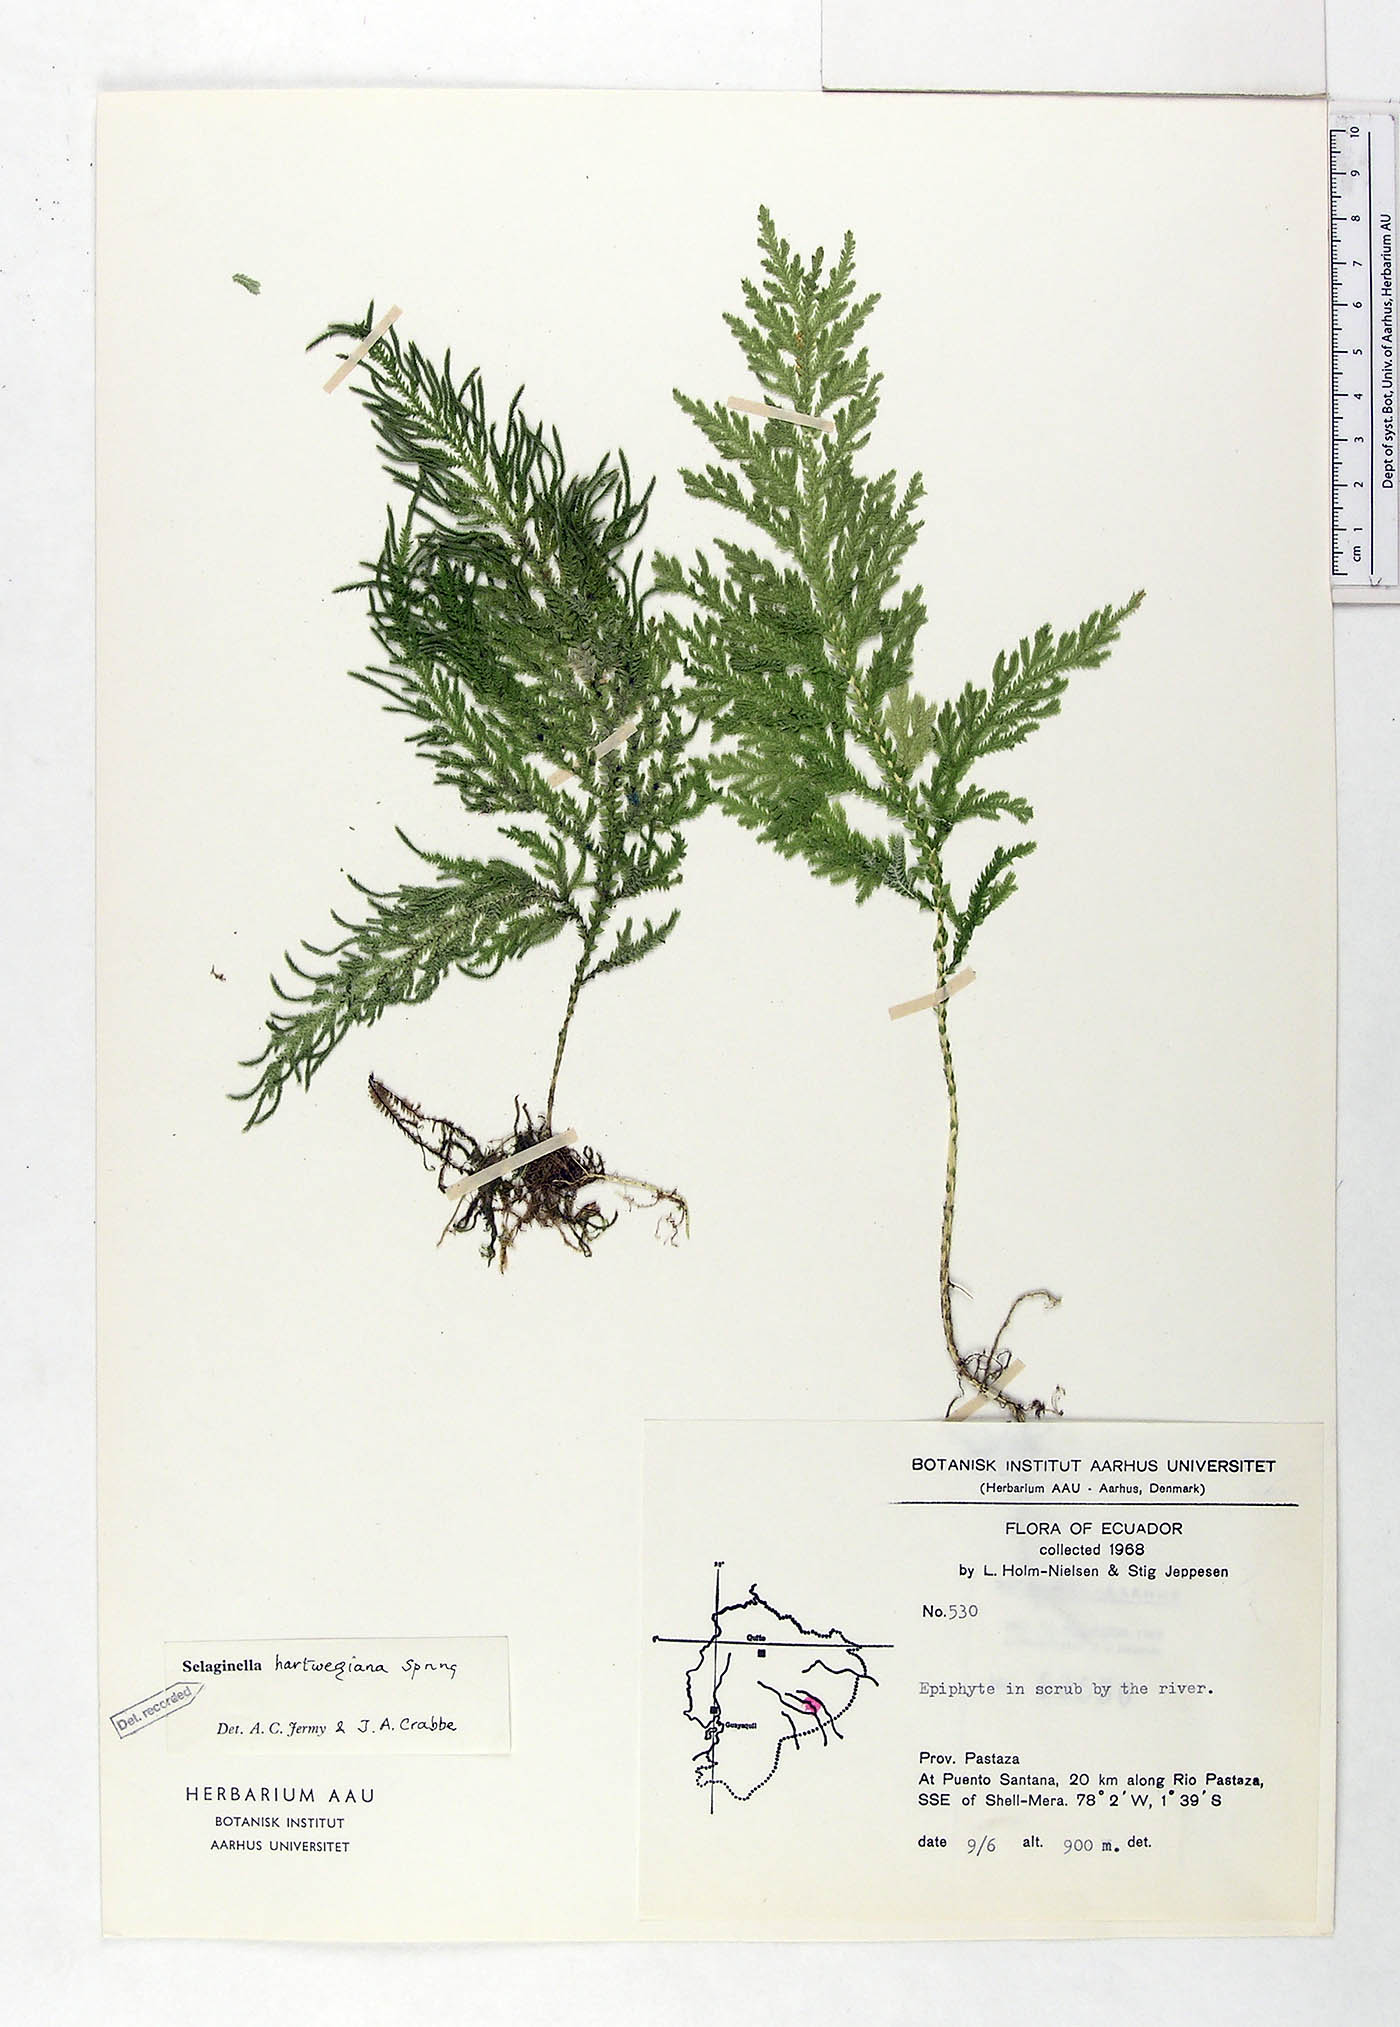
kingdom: Plantae
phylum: Tracheophyta
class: Lycopodiopsida
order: Selaginellales
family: Selaginellaceae
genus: Selaginella
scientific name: Selaginella hartwegiana
